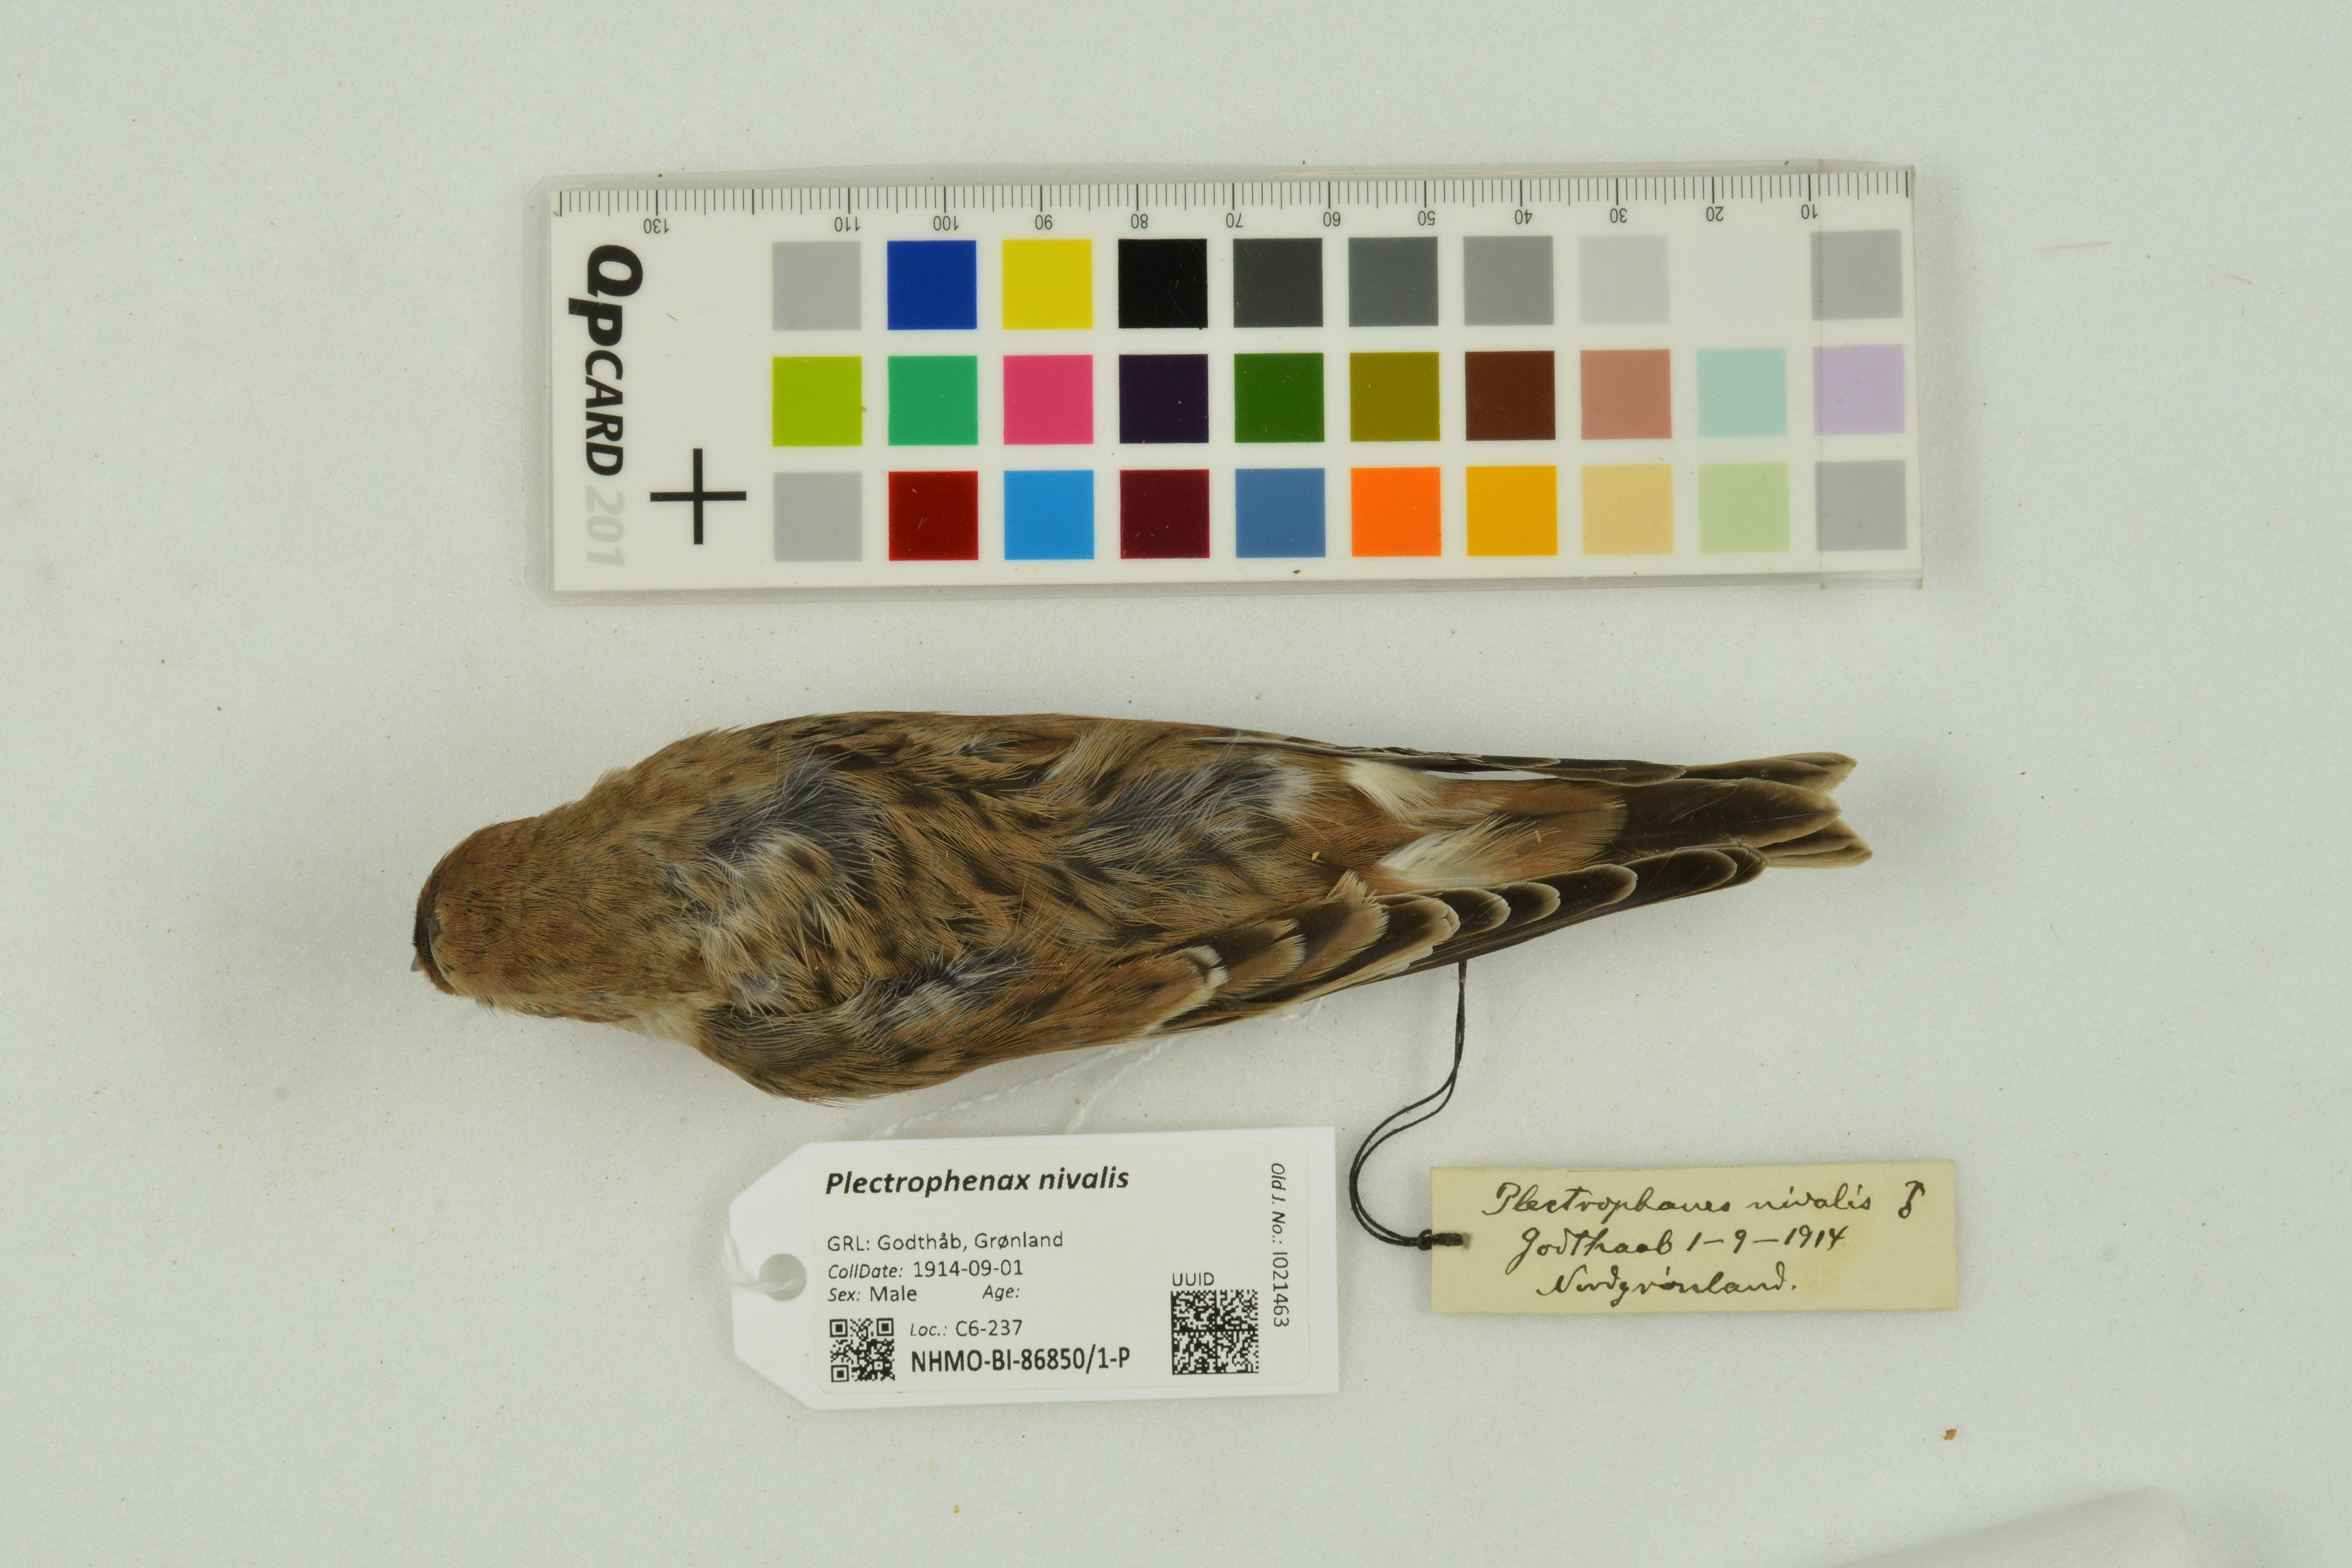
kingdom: Animalia
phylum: Chordata
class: Aves
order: Passeriformes
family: Calcariidae
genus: Plectrophenax
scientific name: Plectrophenax nivalis
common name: Snow bunting
